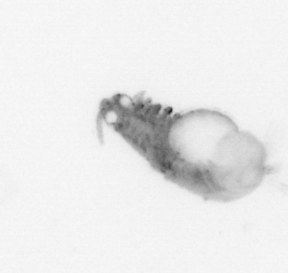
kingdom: Animalia
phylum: Annelida
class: Polychaeta
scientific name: Polychaeta
